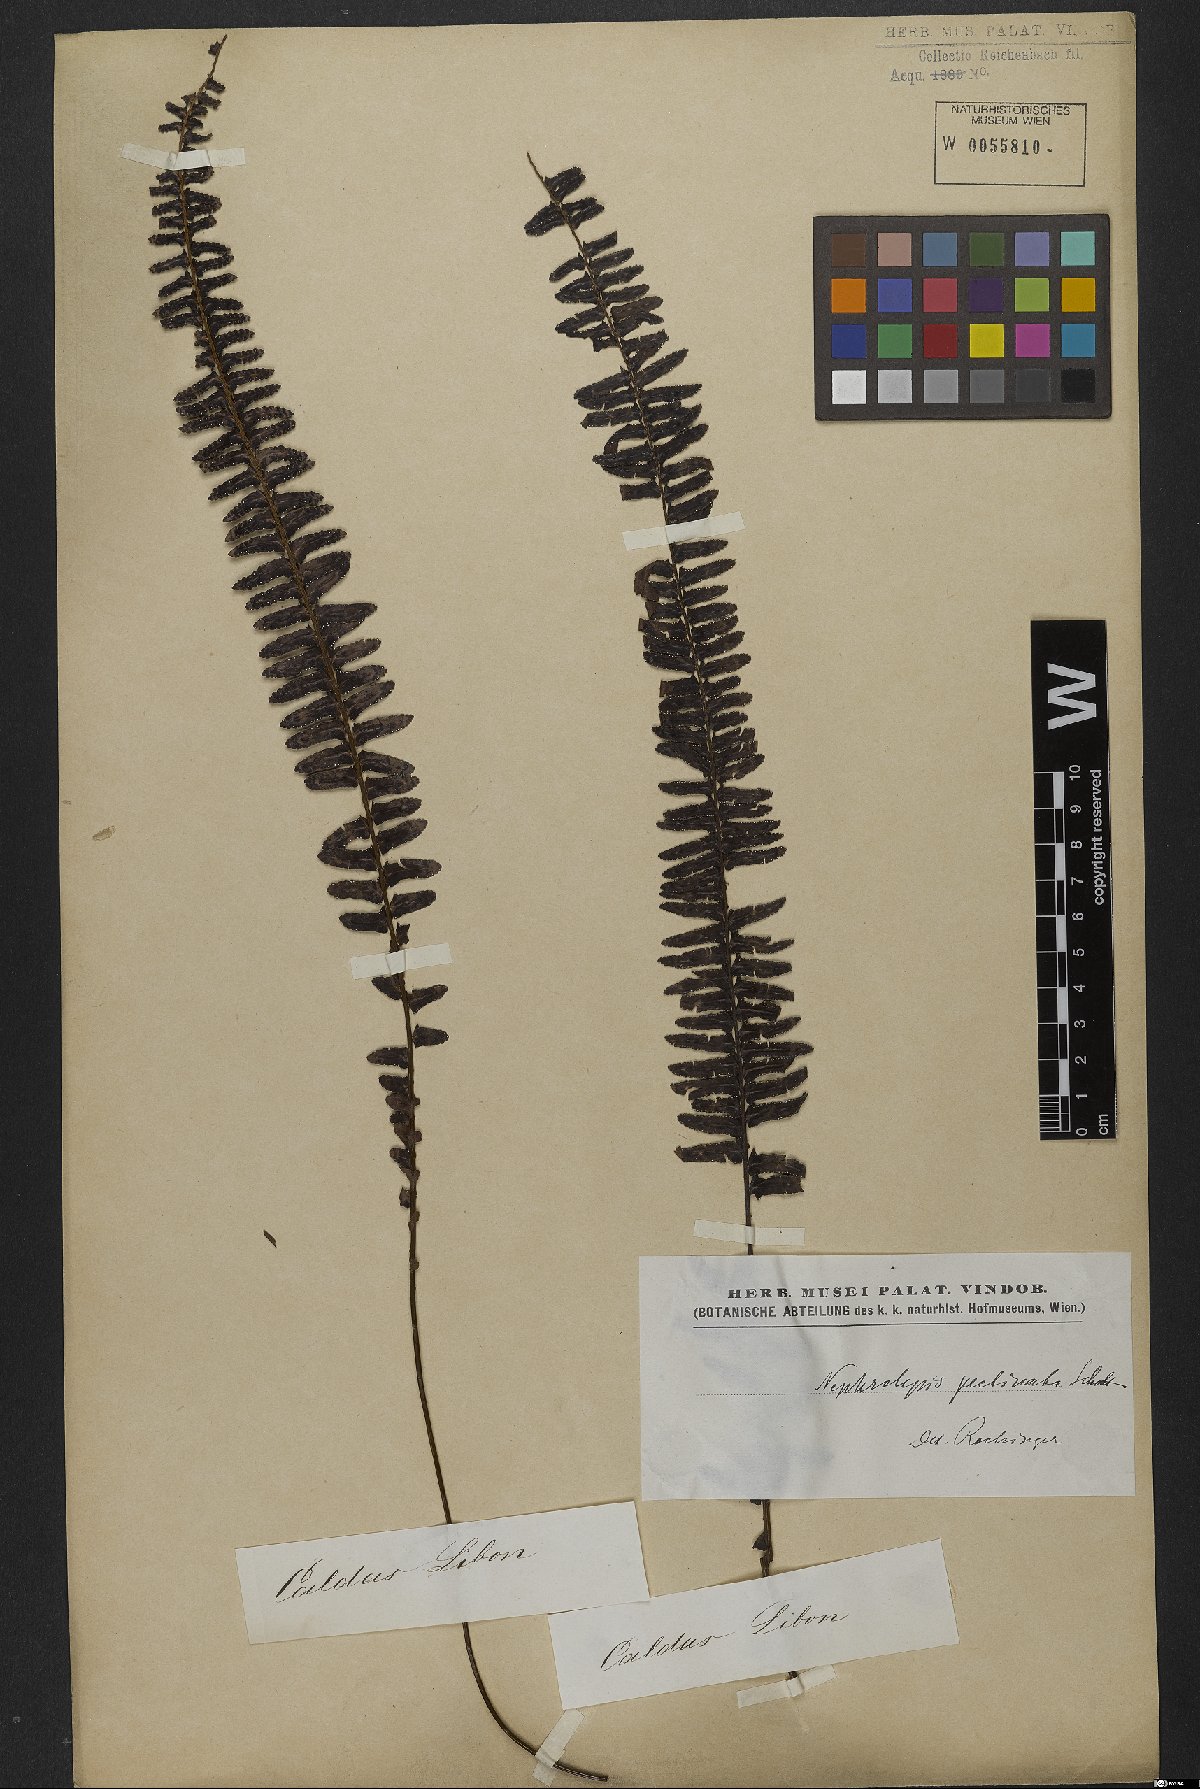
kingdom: Plantae
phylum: Tracheophyta
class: Polypodiopsida
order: Polypodiales
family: Nephrolepidaceae
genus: Nephrolepis
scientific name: Nephrolepis pectinata
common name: Basket fern
